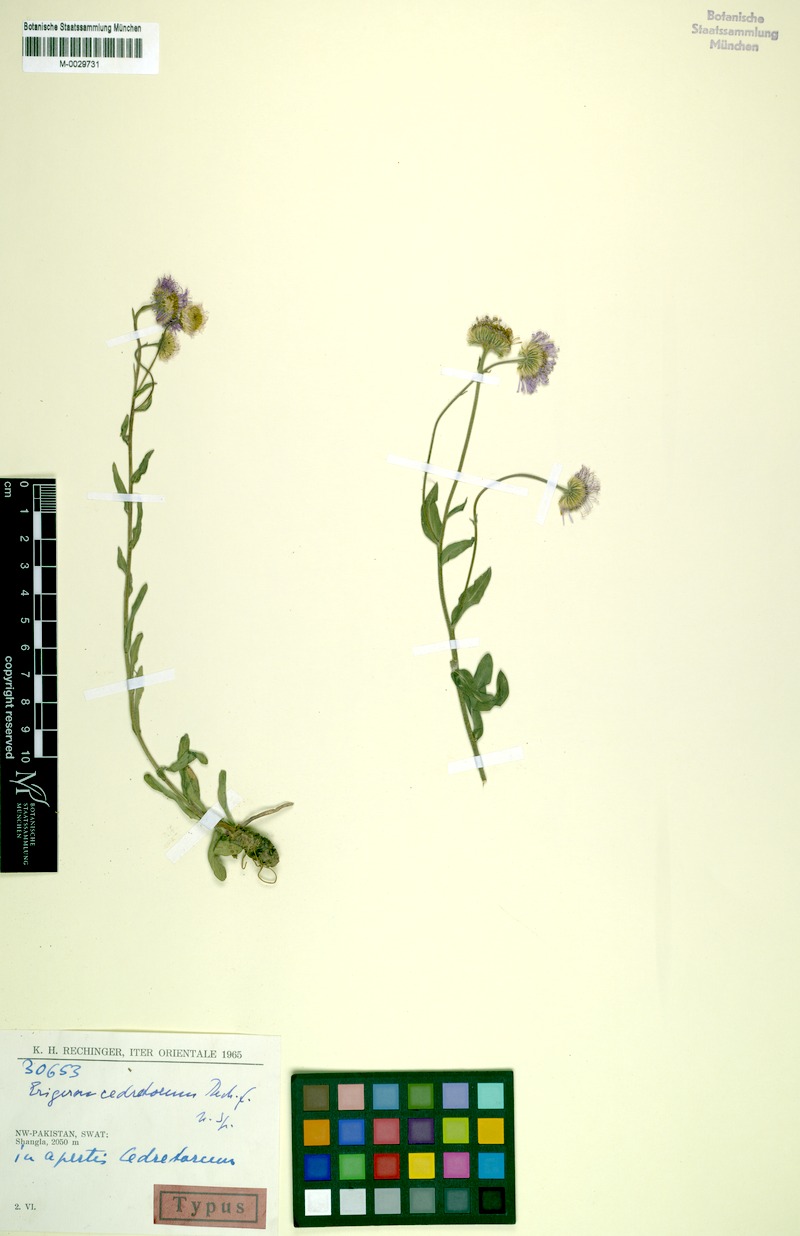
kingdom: Plantae
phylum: Tracheophyta
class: Magnoliopsida
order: Asterales
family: Asteraceae
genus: Erigeron
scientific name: Erigeron multiradiatus
